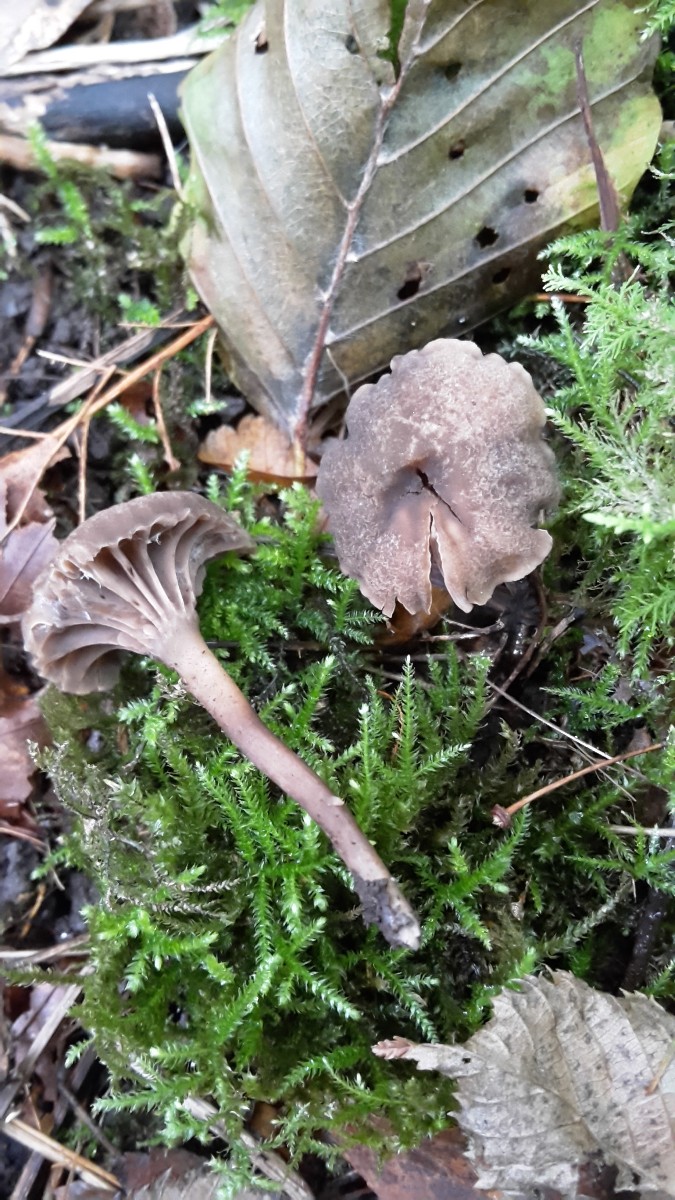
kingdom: Fungi
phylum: Basidiomycota
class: Agaricomycetes
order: Agaricales
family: Clavariaceae
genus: Hodophilus
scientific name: Hodophilus
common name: kratvokshat
